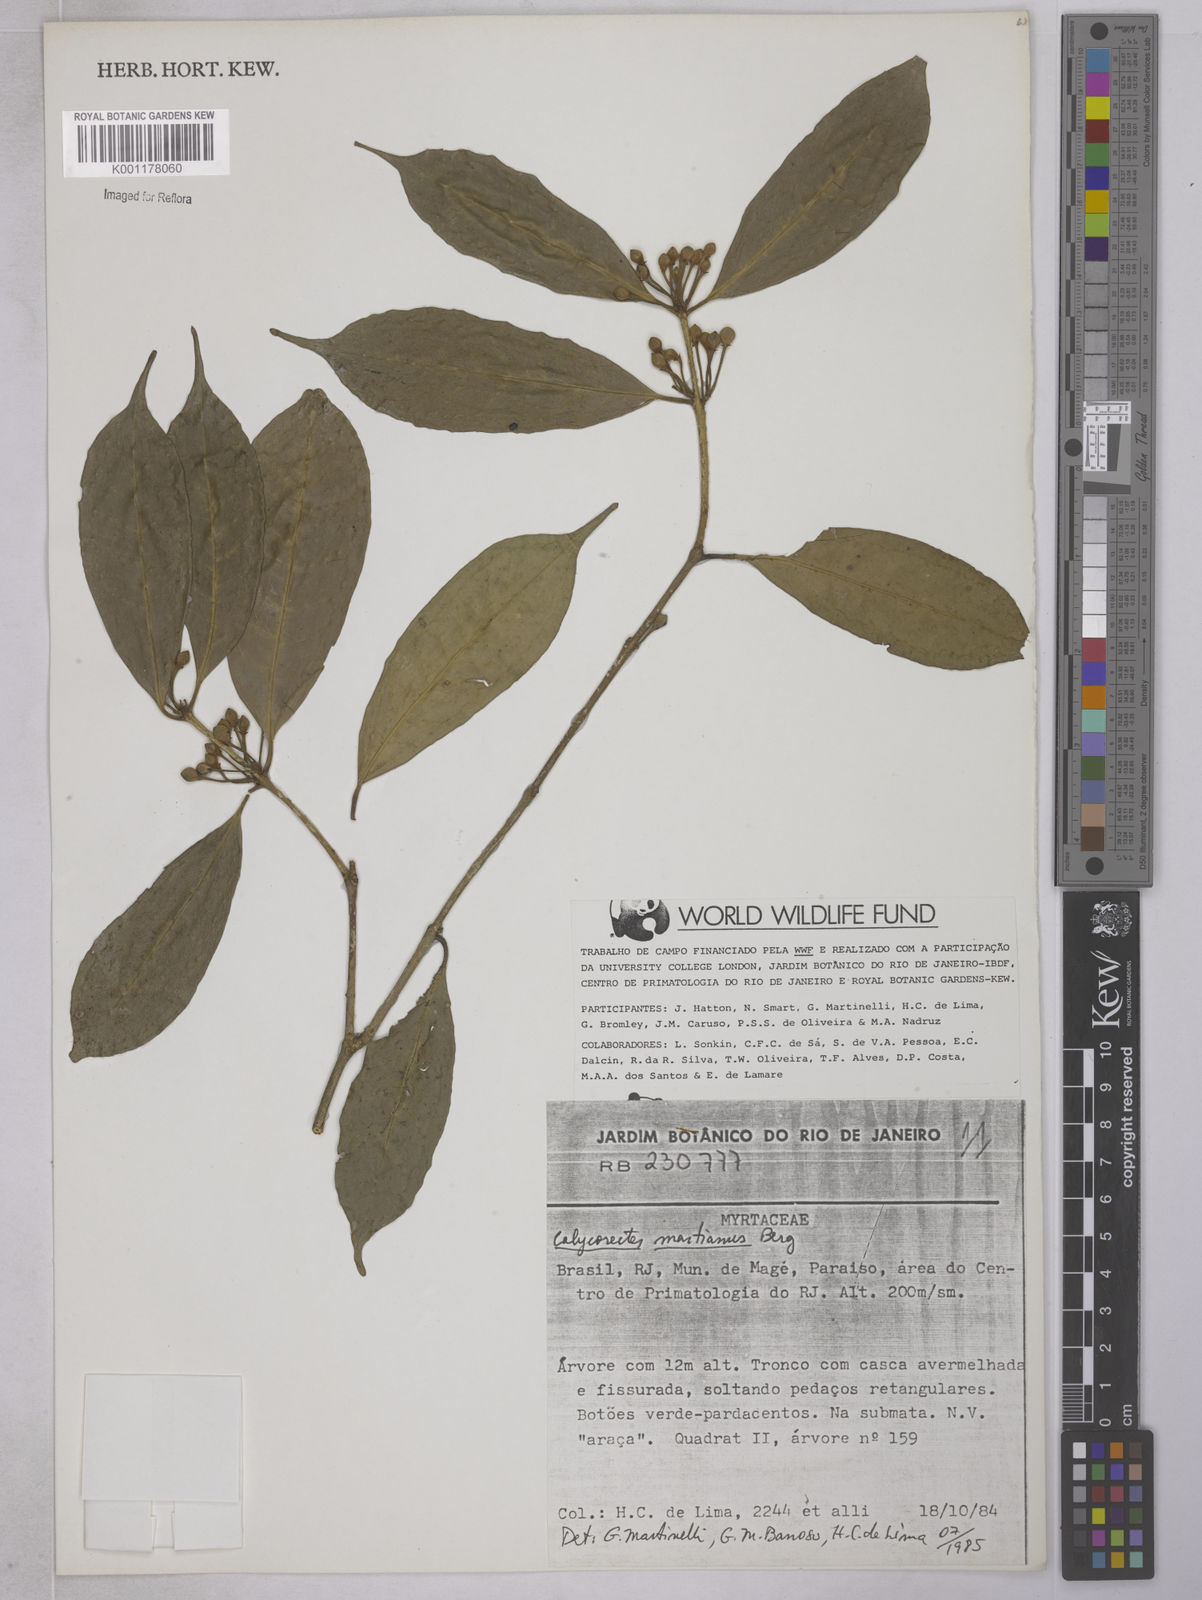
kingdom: Plantae
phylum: Tracheophyta
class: Magnoliopsida
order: Myrtales
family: Myrtaceae
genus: Eugenia
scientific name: Eugenia
